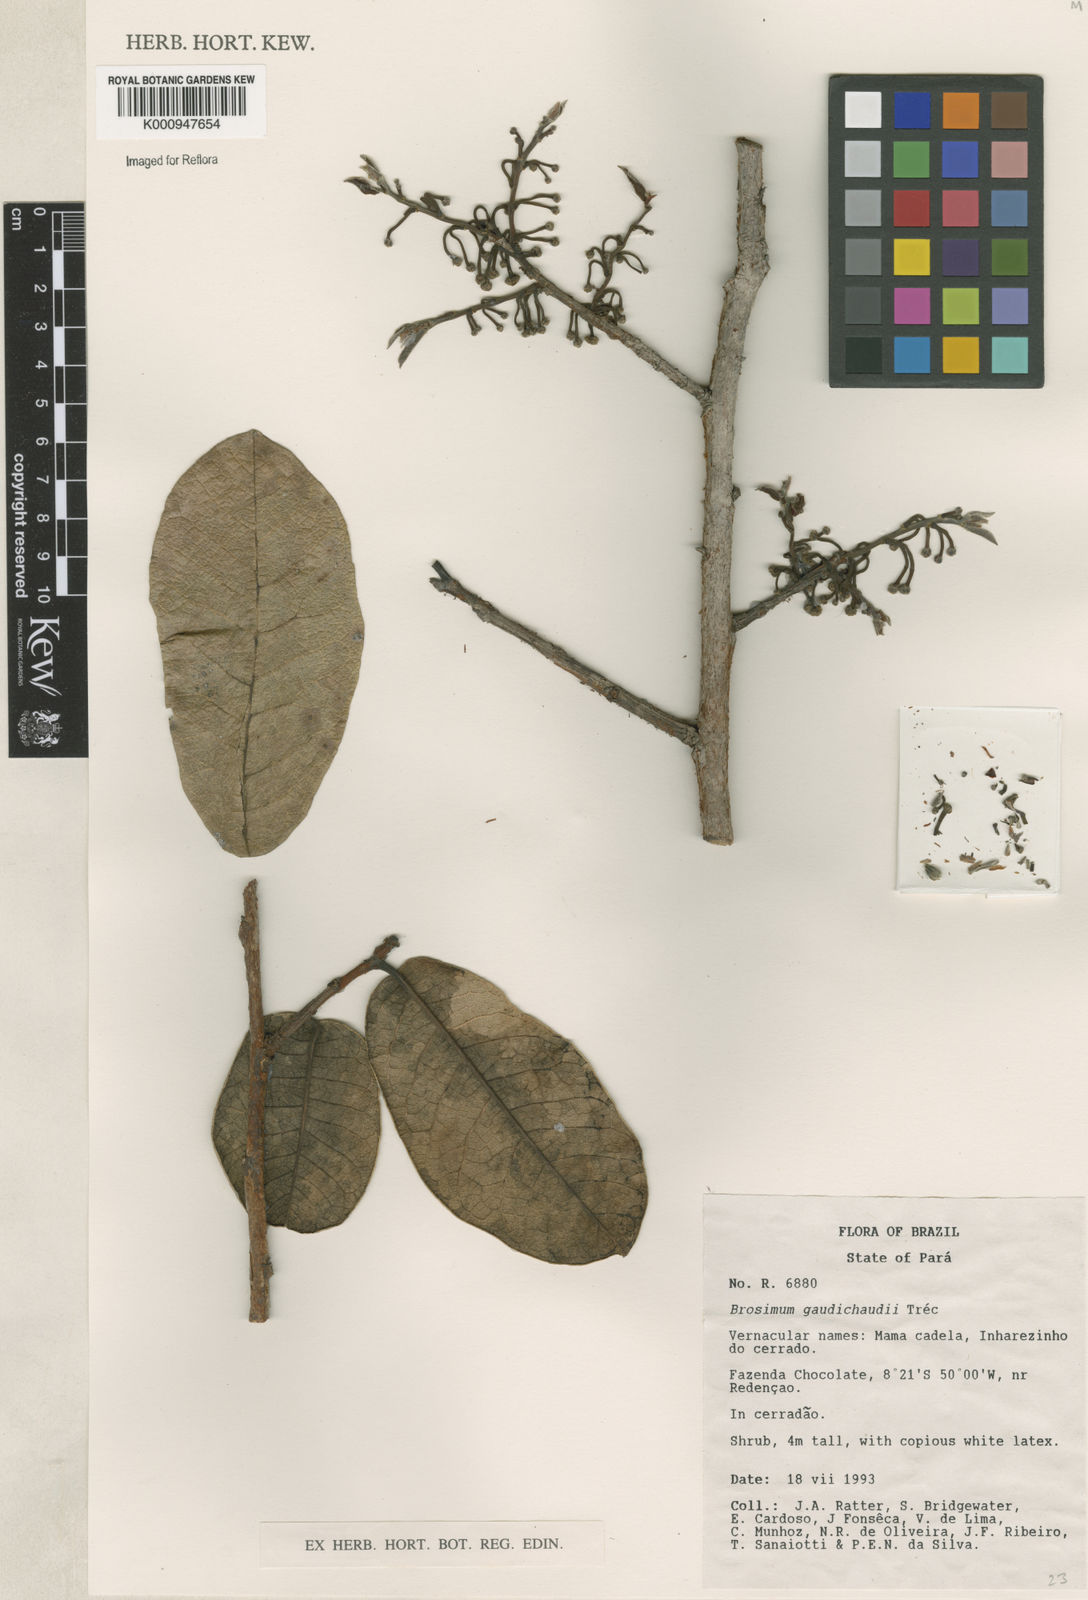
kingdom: Plantae
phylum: Tracheophyta
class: Magnoliopsida
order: Rosales
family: Moraceae
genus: Brosimum
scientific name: Brosimum
